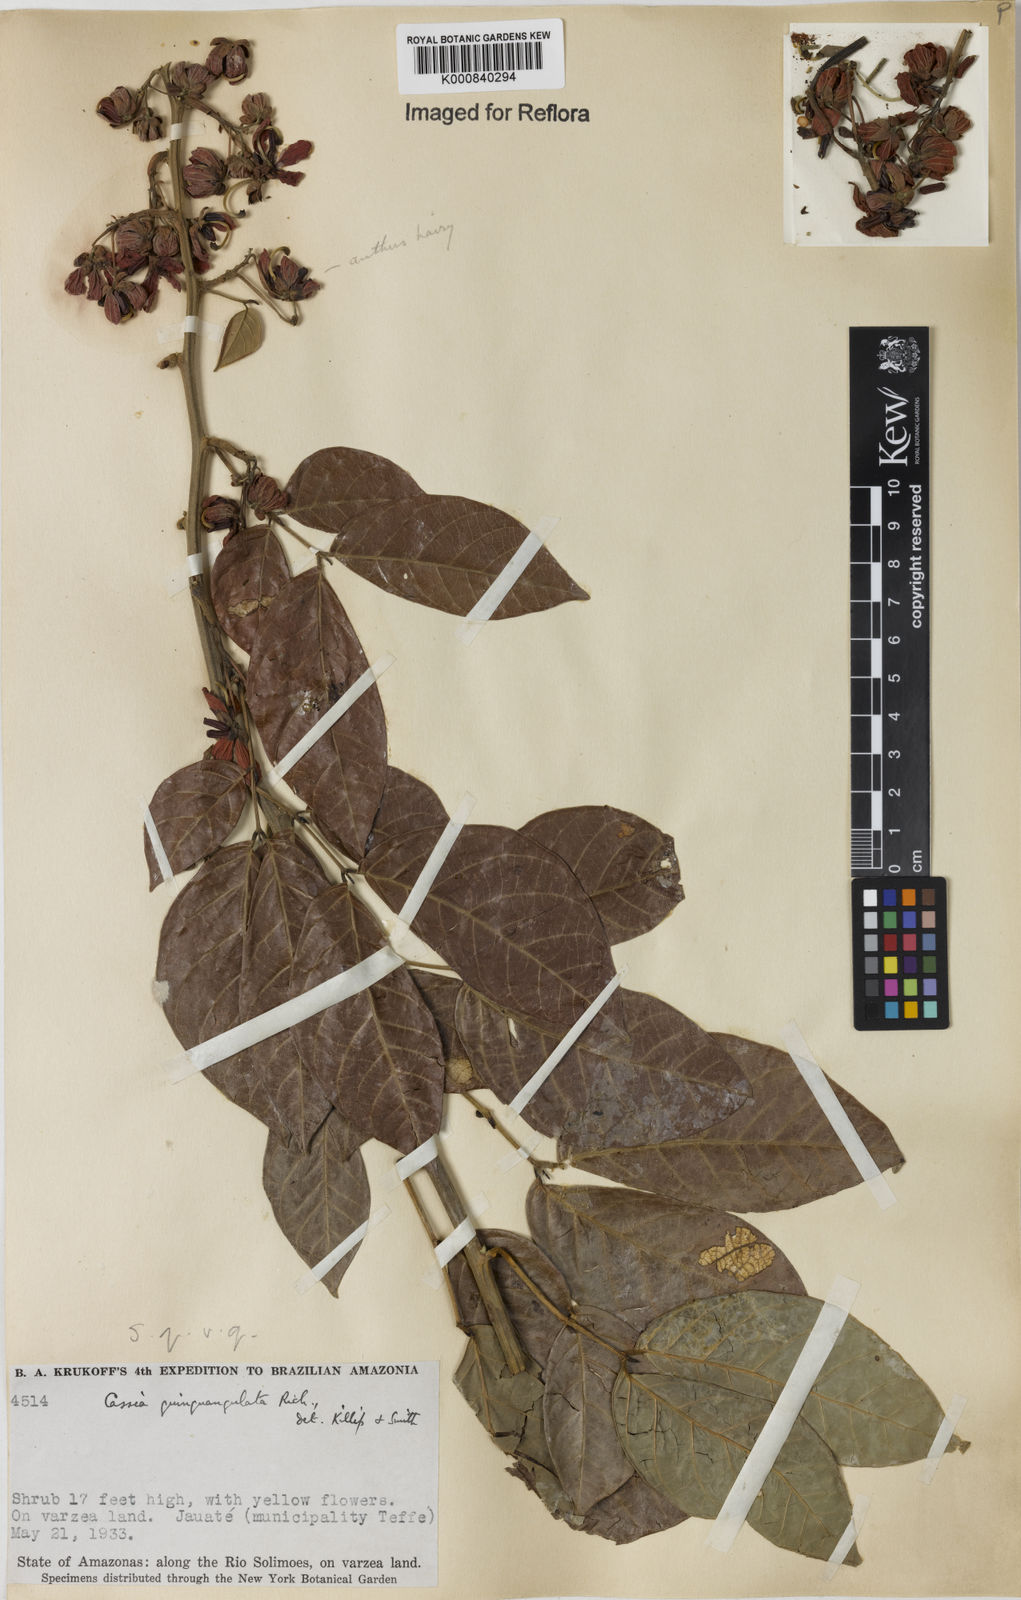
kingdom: Plantae
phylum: Tracheophyta
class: Magnoliopsida
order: Fabales
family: Fabaceae
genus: Senna
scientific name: Senna
